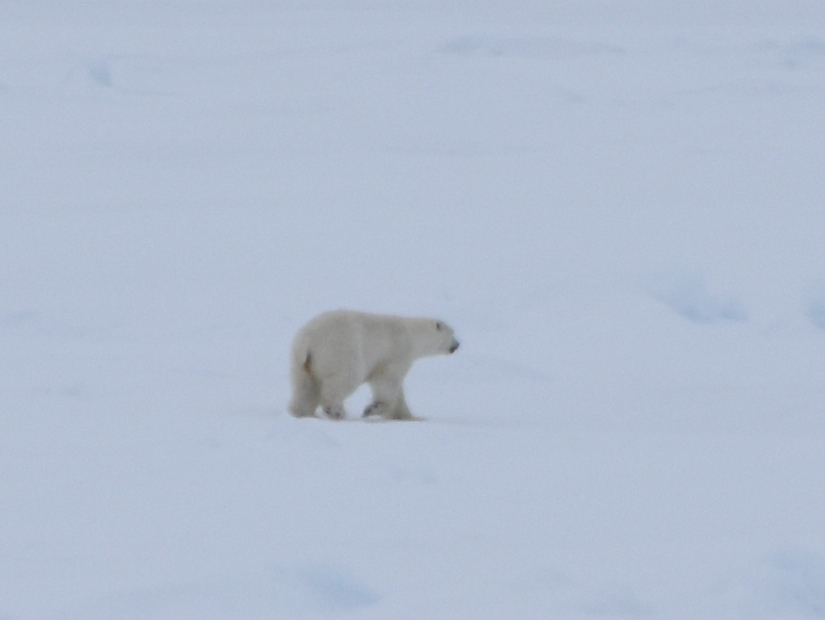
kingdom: Animalia
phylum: Chordata
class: Mammalia
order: Carnivora
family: Ursidae
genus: Ursus
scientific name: Ursus maritimus
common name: Polar Bear
